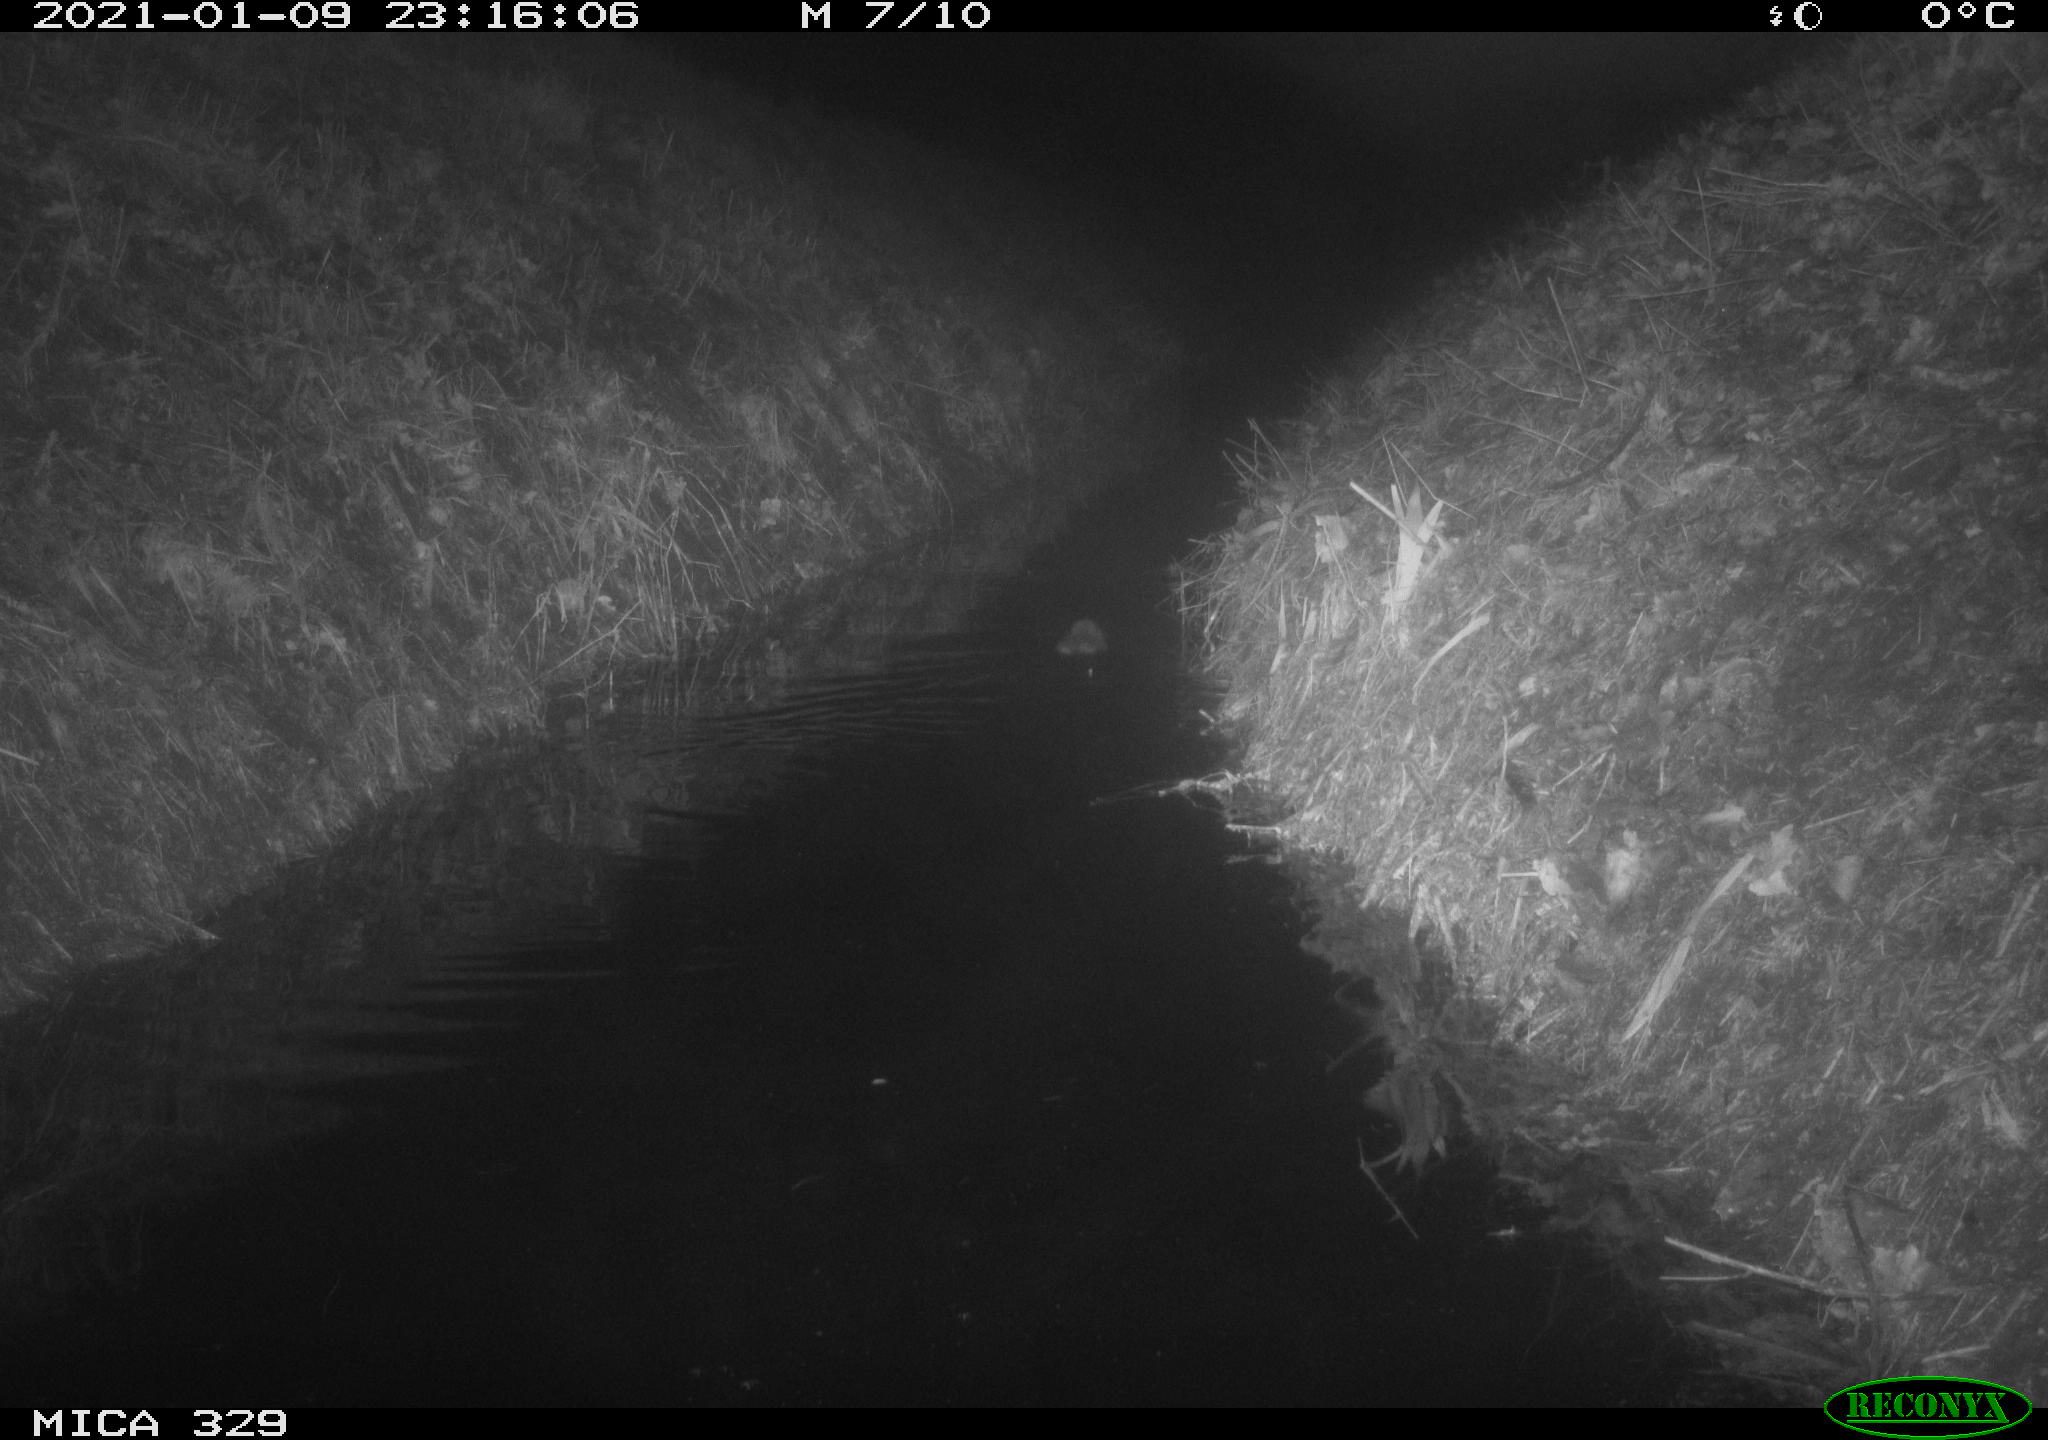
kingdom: Animalia
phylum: Chordata
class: Mammalia
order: Rodentia
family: Cricetidae
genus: Ondatra
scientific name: Ondatra zibethicus
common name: Muskrat
